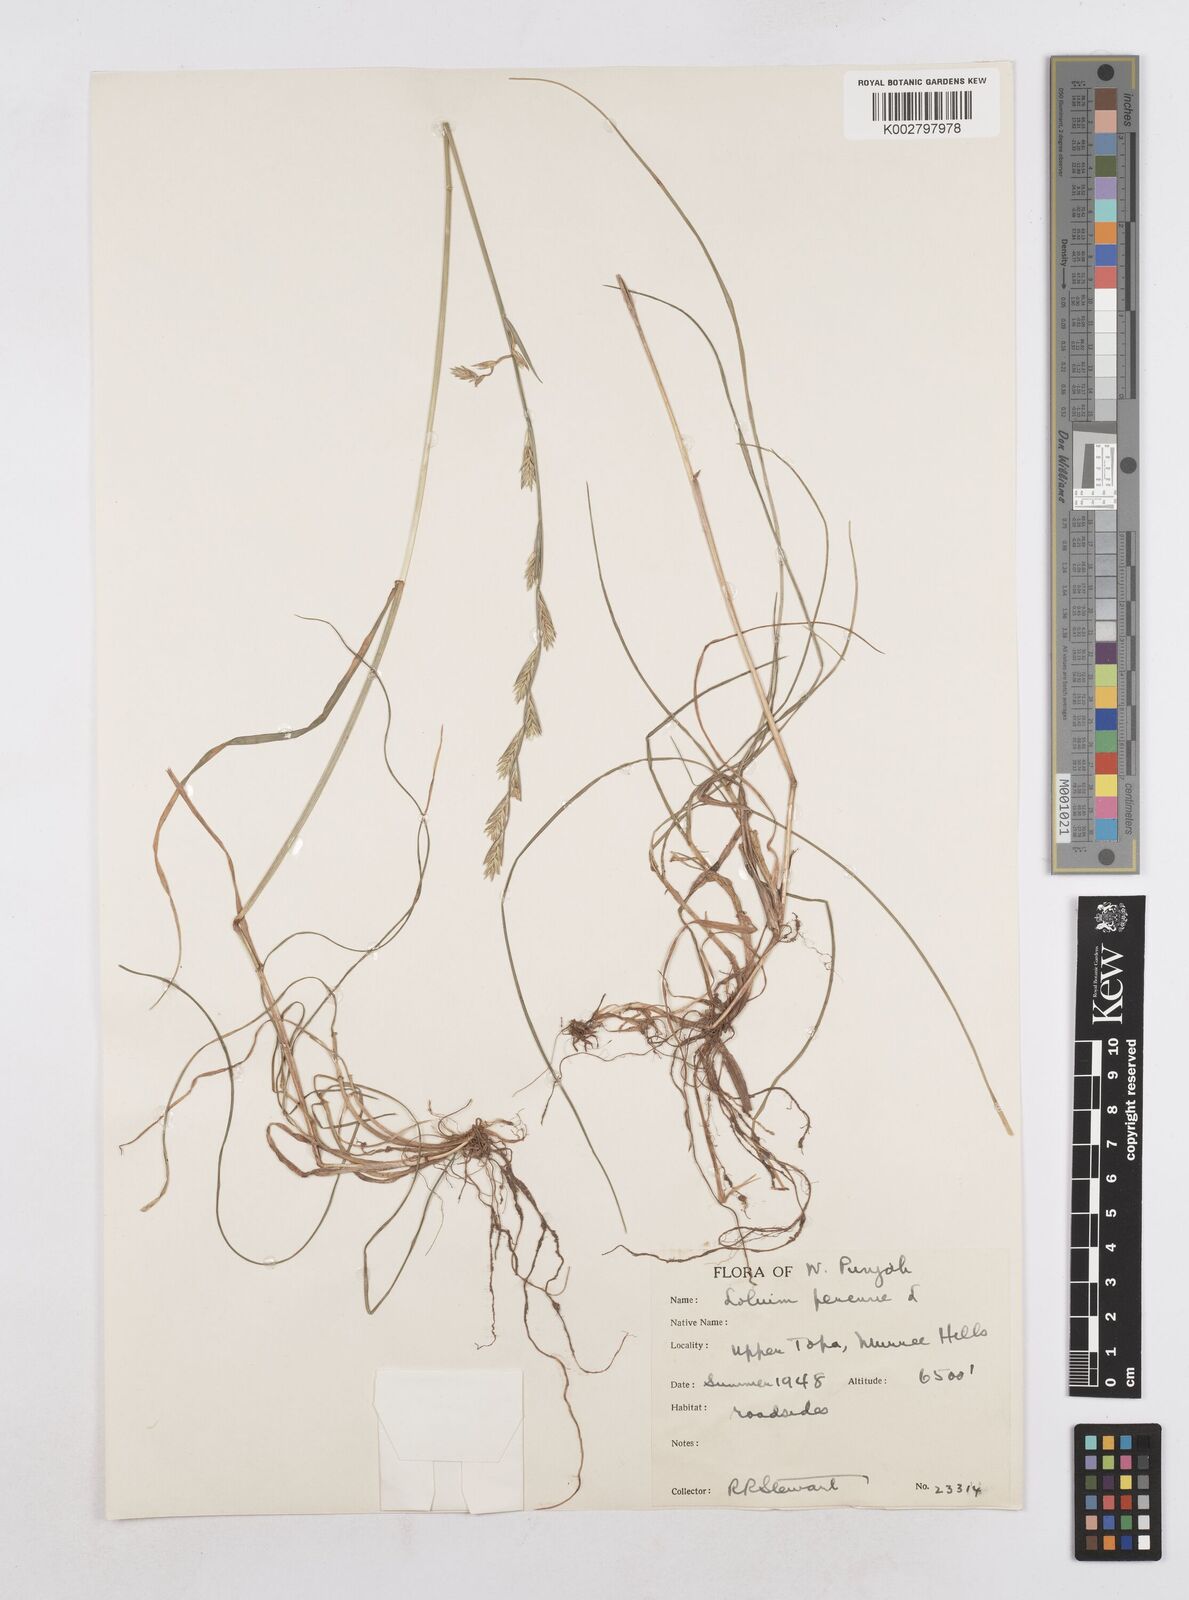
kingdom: Plantae
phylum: Tracheophyta
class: Liliopsida
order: Poales
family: Poaceae
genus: Lolium
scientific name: Lolium perenne
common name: Perennial ryegrass
